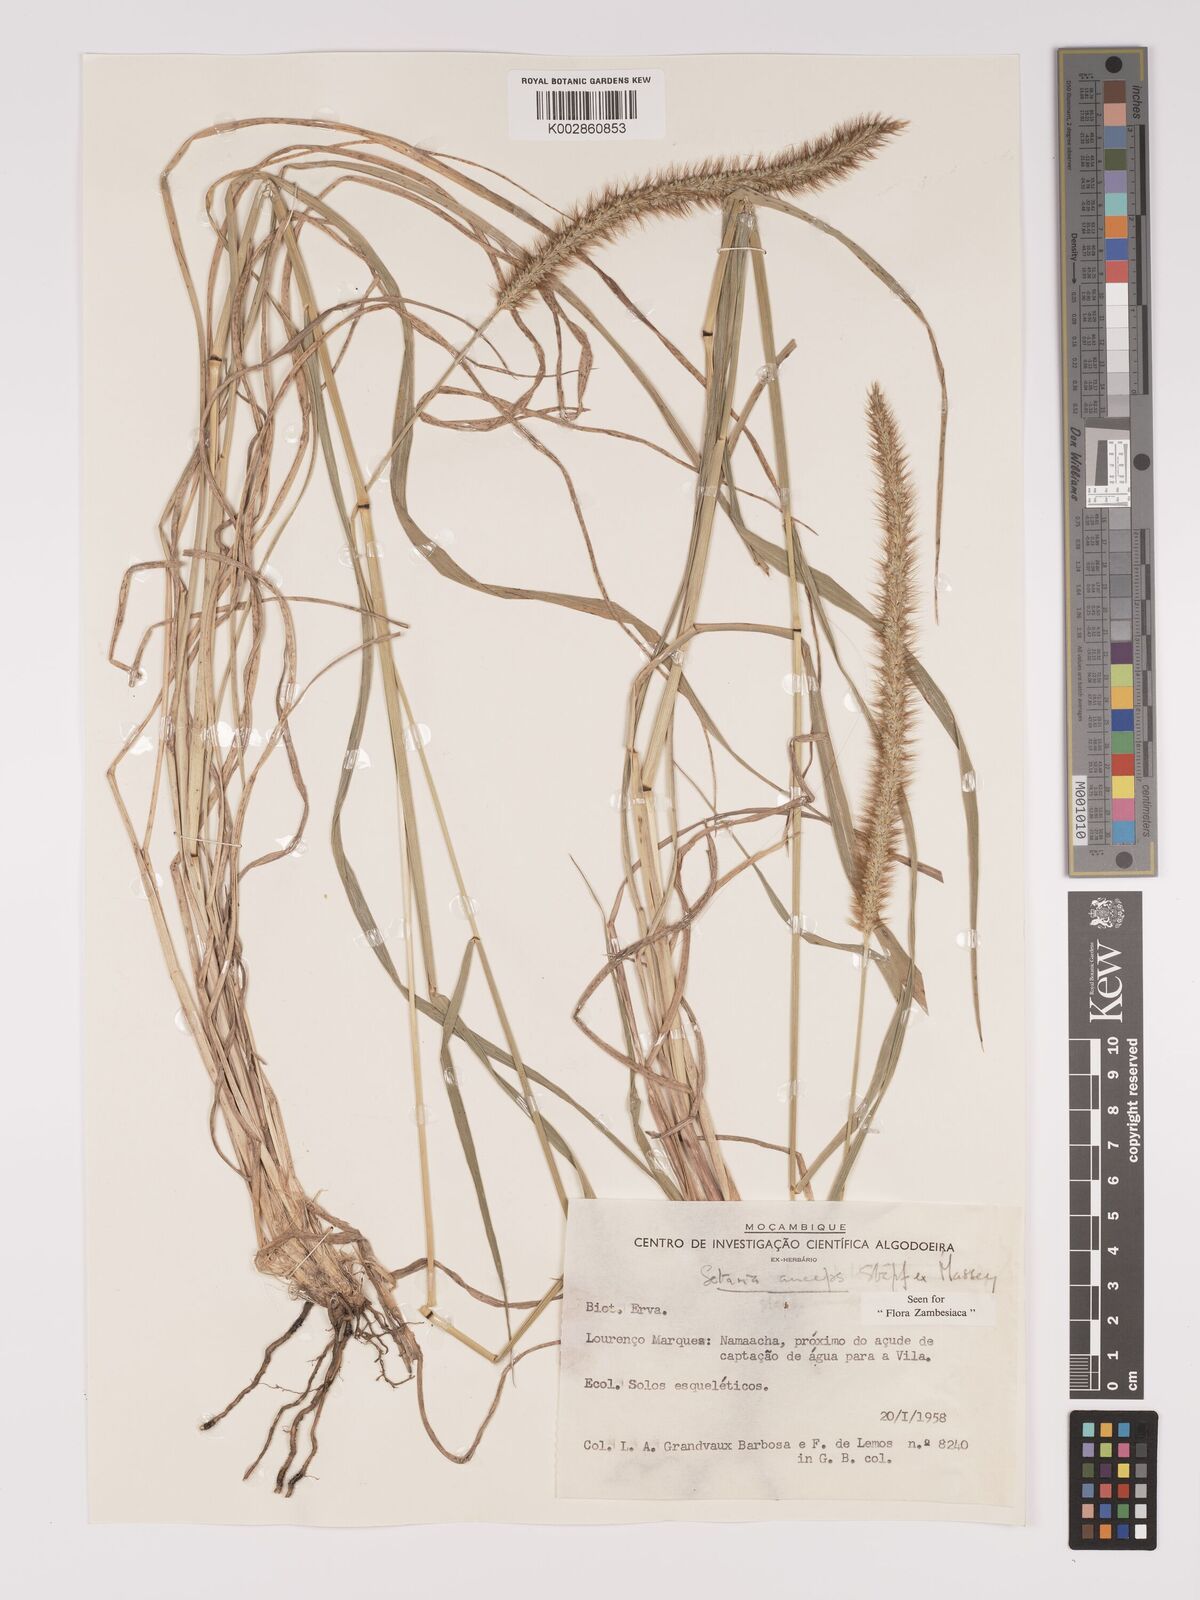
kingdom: Plantae
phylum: Tracheophyta
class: Liliopsida
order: Poales
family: Poaceae
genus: Setaria
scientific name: Setaria sphacelata
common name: African bristlegrass
